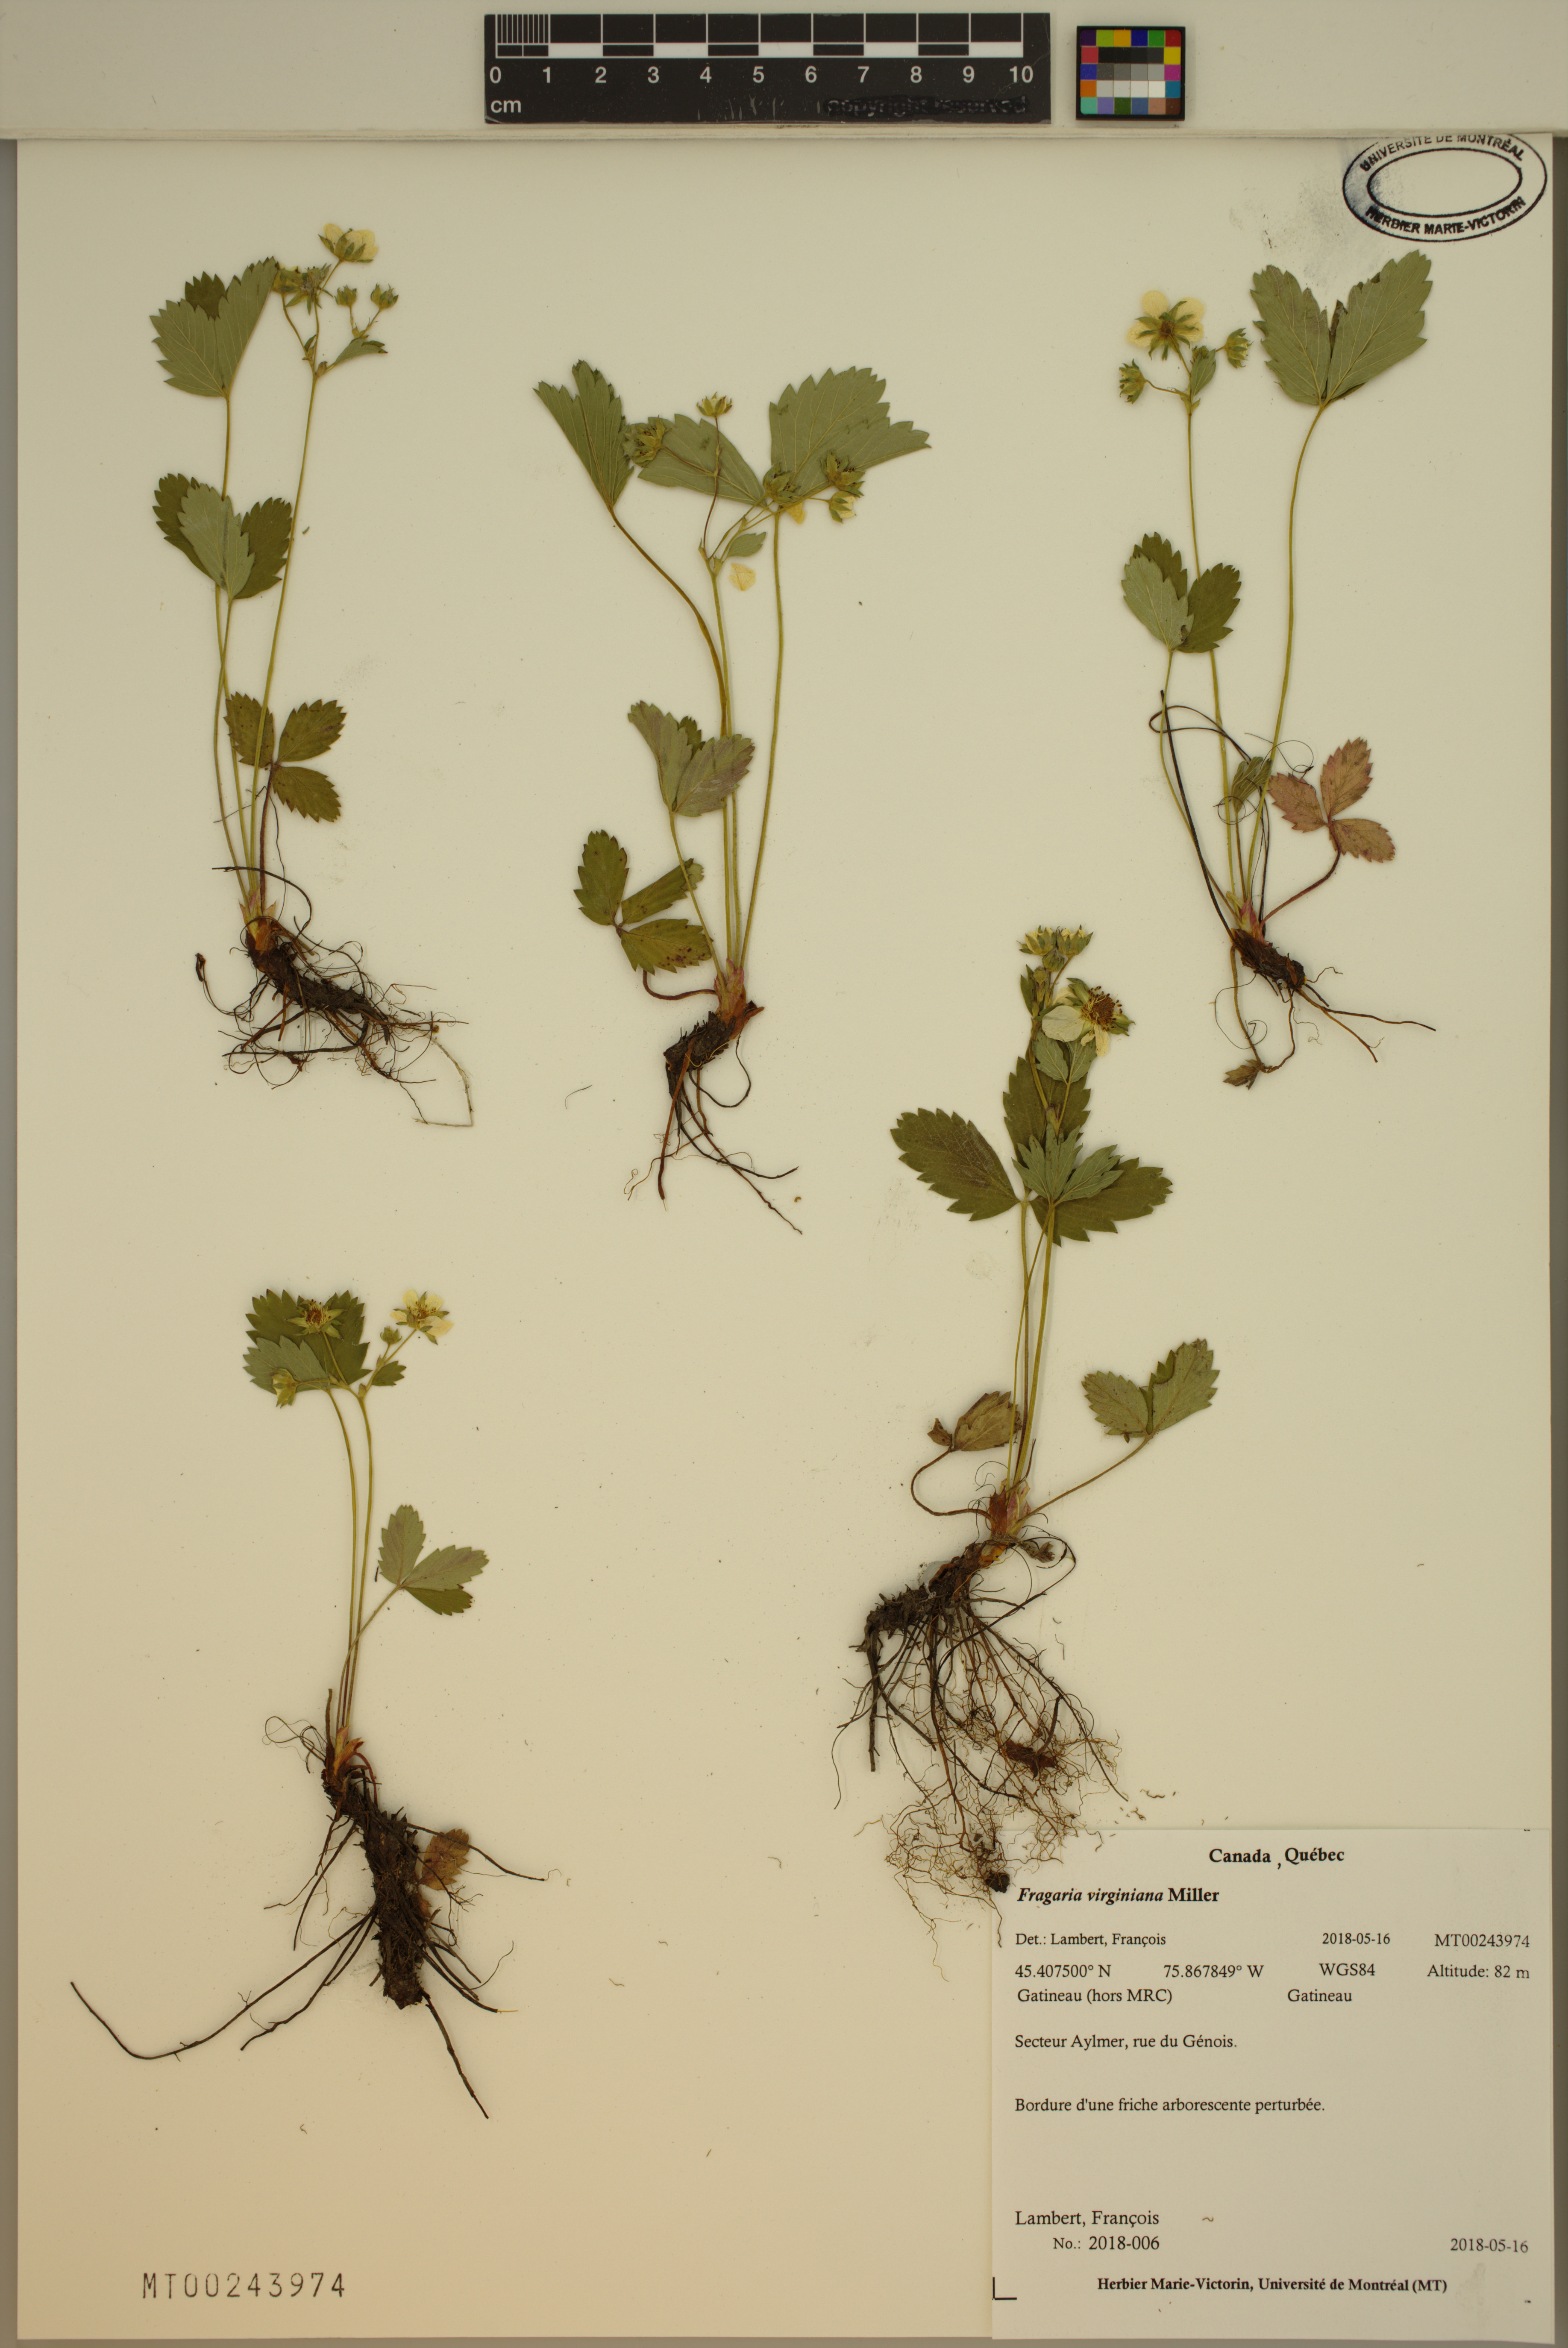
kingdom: Plantae
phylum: Tracheophyta
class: Magnoliopsida
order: Rosales
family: Rosaceae
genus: Fragaria
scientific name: Fragaria virginiana
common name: Thickleaved wild strawberry
